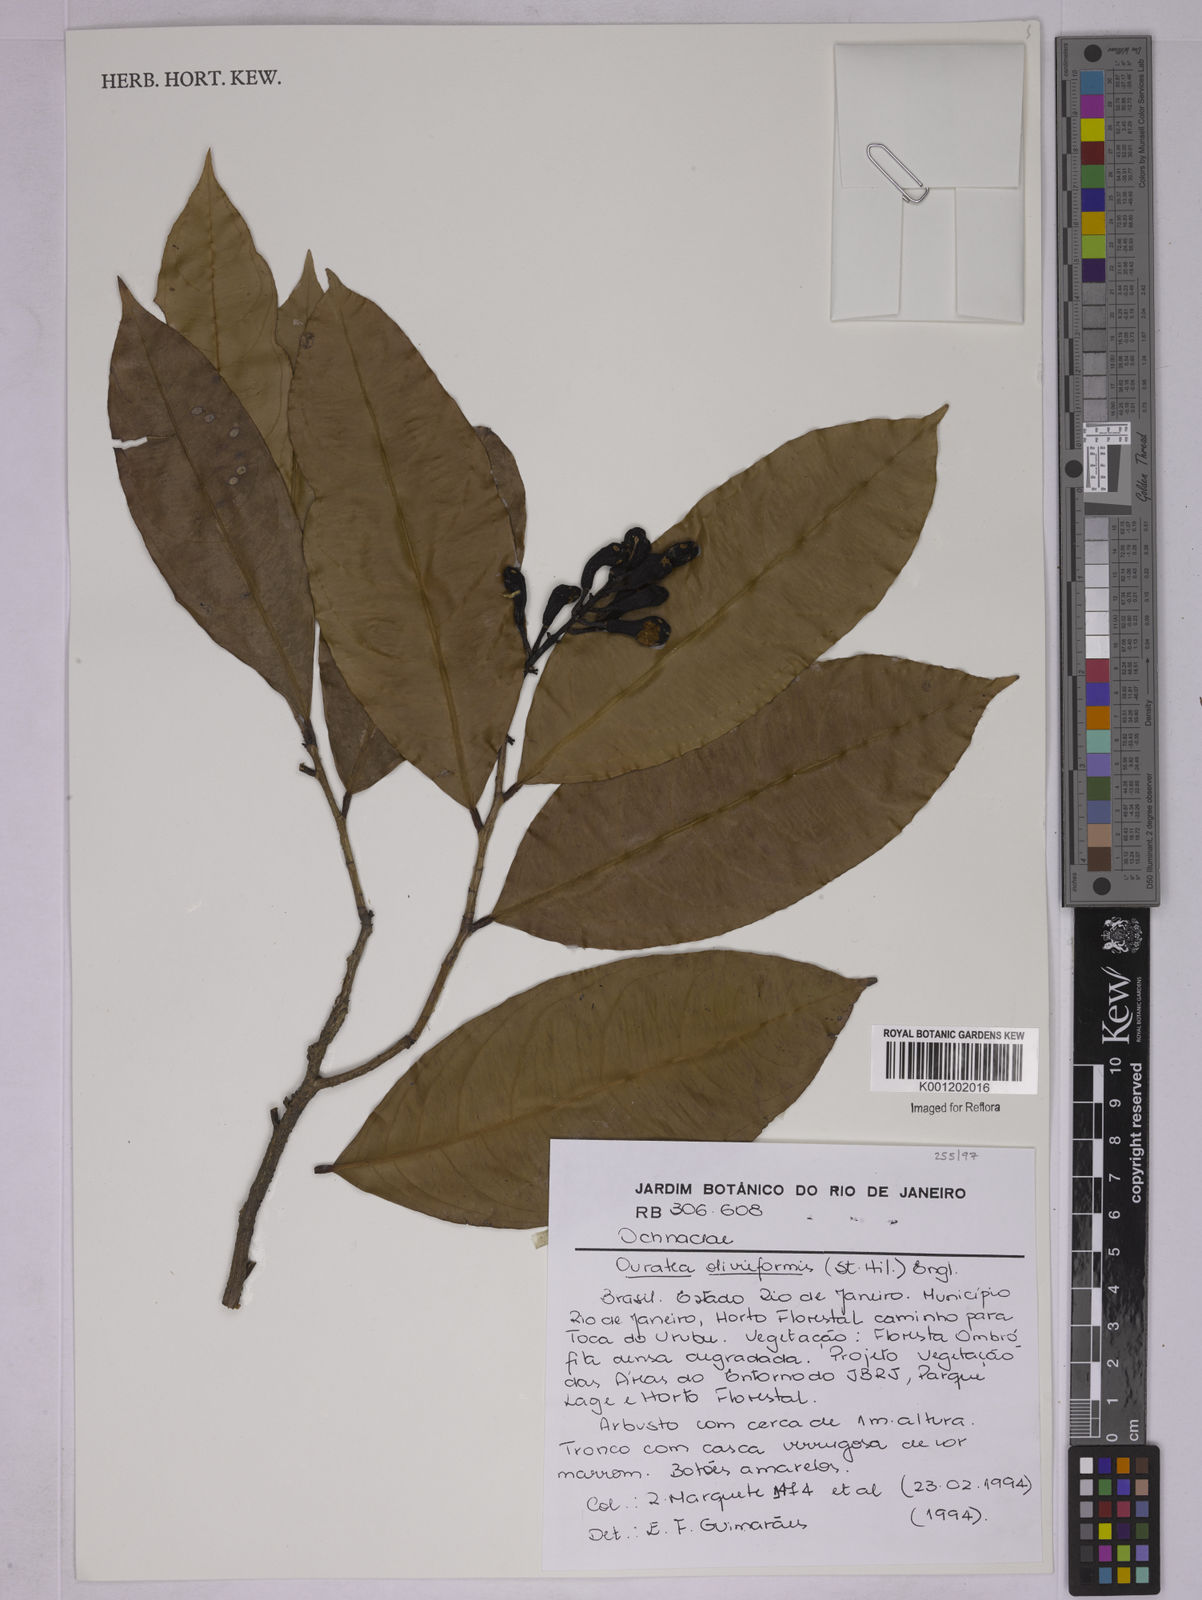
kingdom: Plantae
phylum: Tracheophyta
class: Magnoliopsida
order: Malpighiales
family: Ochnaceae
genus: Ouratea
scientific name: Ouratea oliviformis
